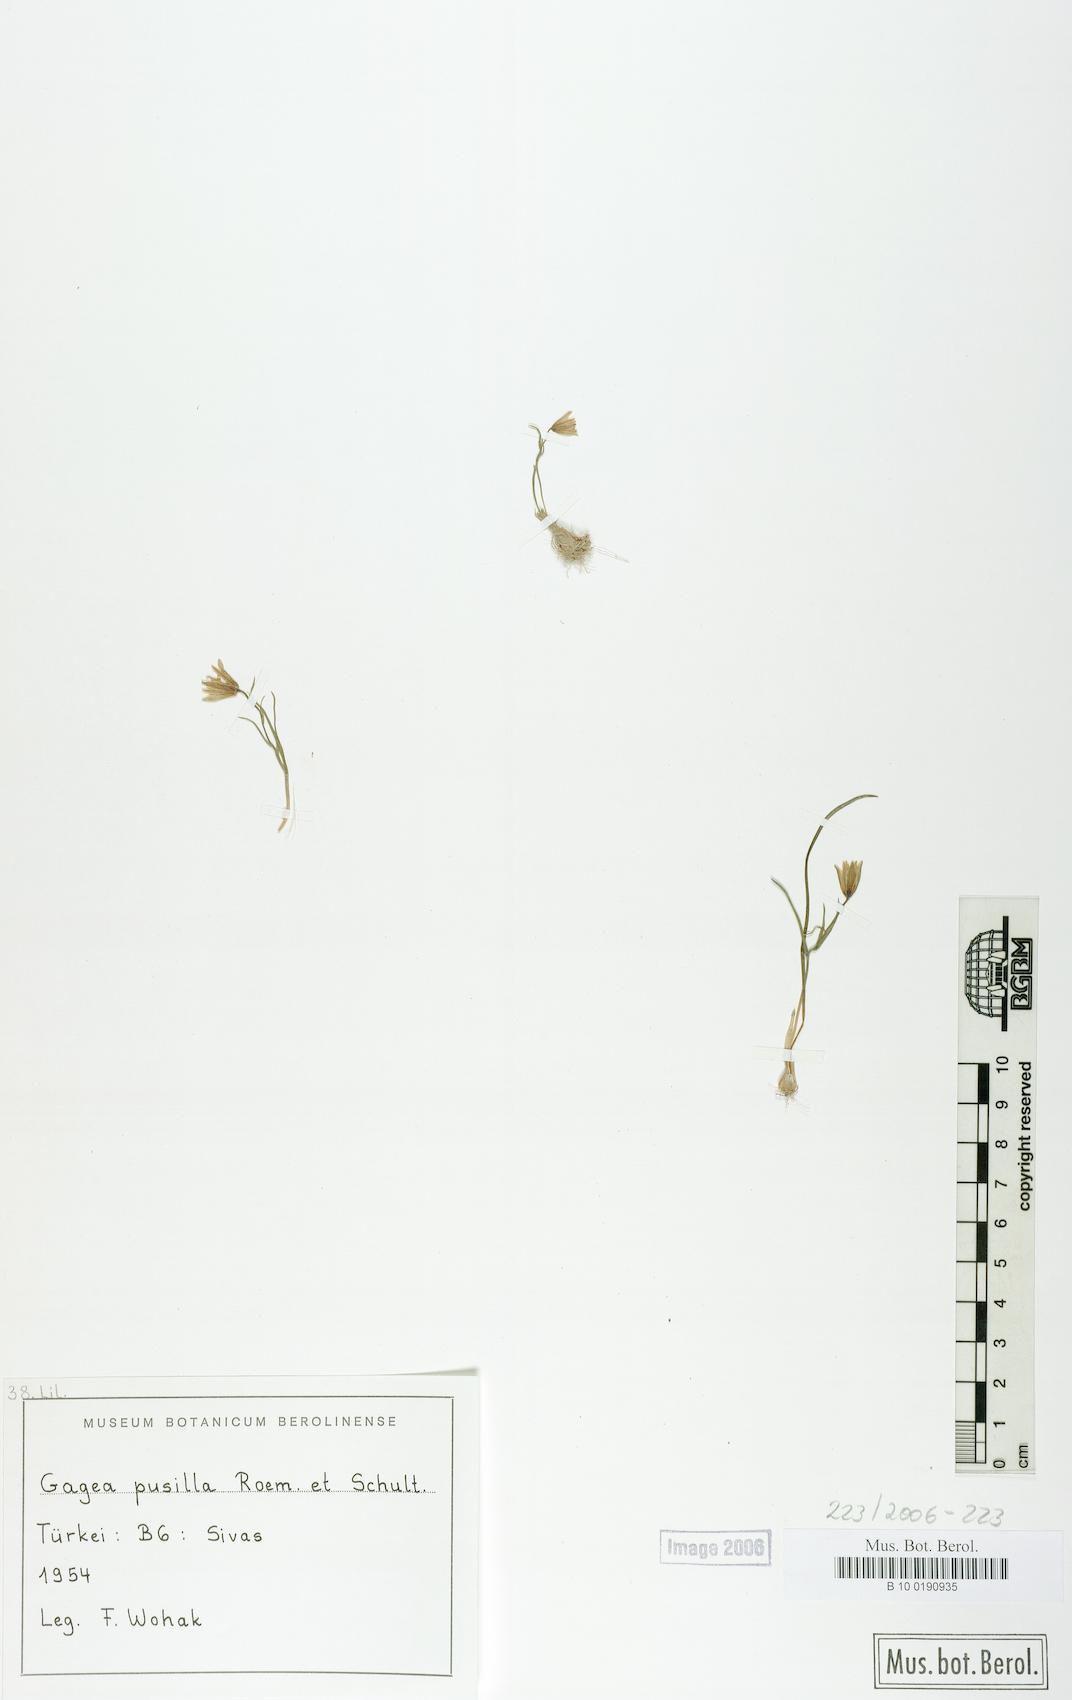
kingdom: Plantae
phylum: Tracheophyta
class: Liliopsida
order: Liliales
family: Liliaceae
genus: Gagea
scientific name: Gagea pusilla
